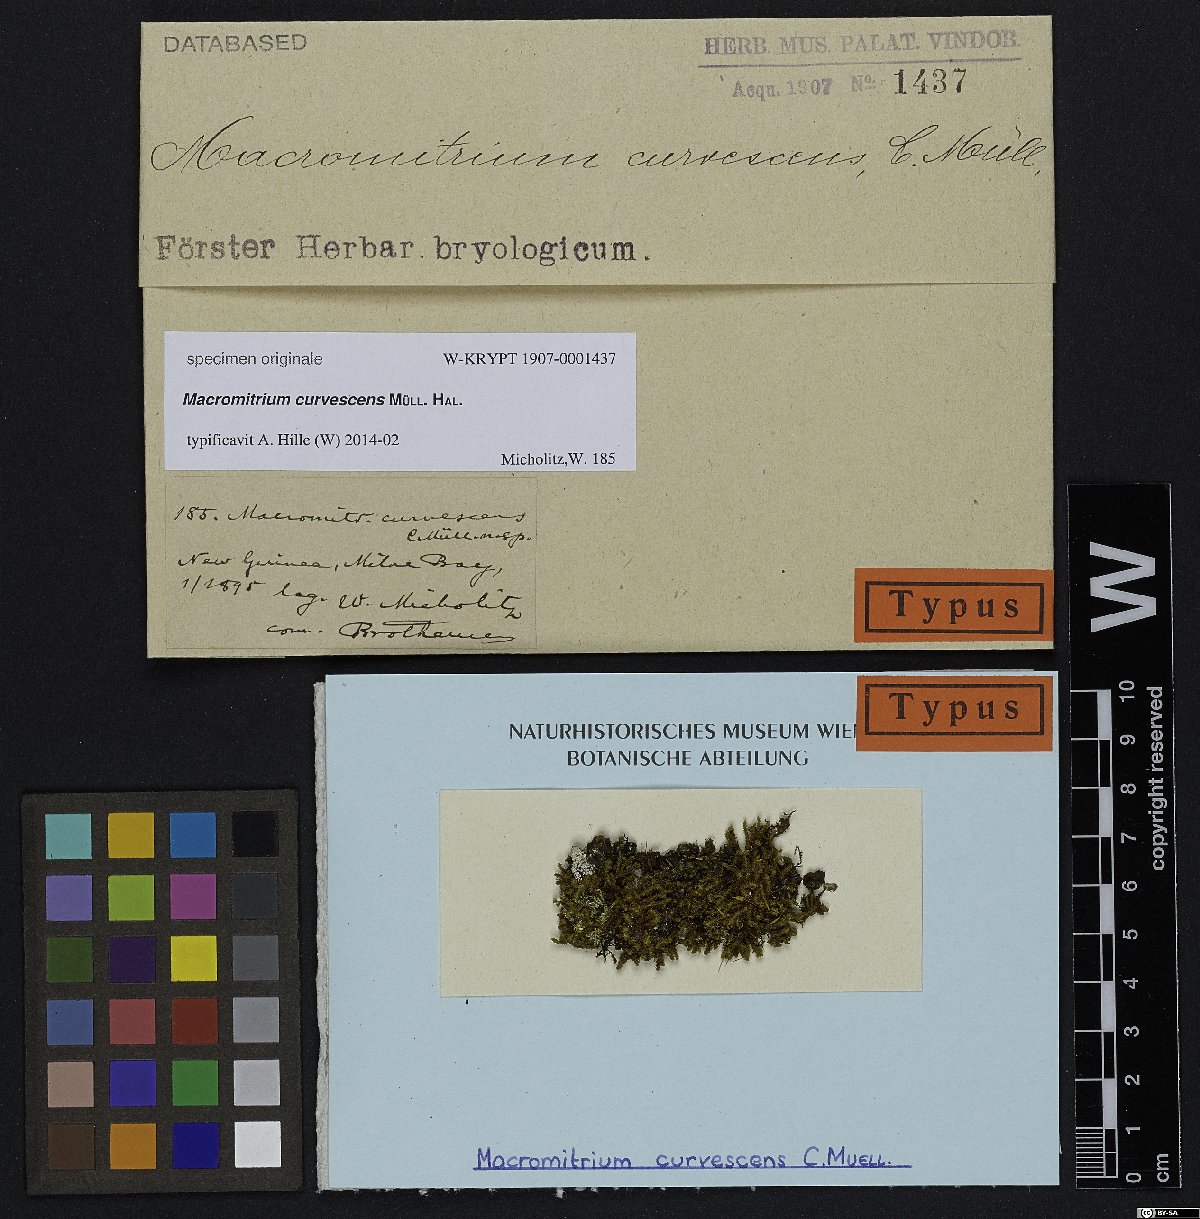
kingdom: Plantae
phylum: Bryophyta
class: Bryopsida
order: Orthotrichales
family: Orthotrichaceae
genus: Macromitrium
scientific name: Macromitrium
